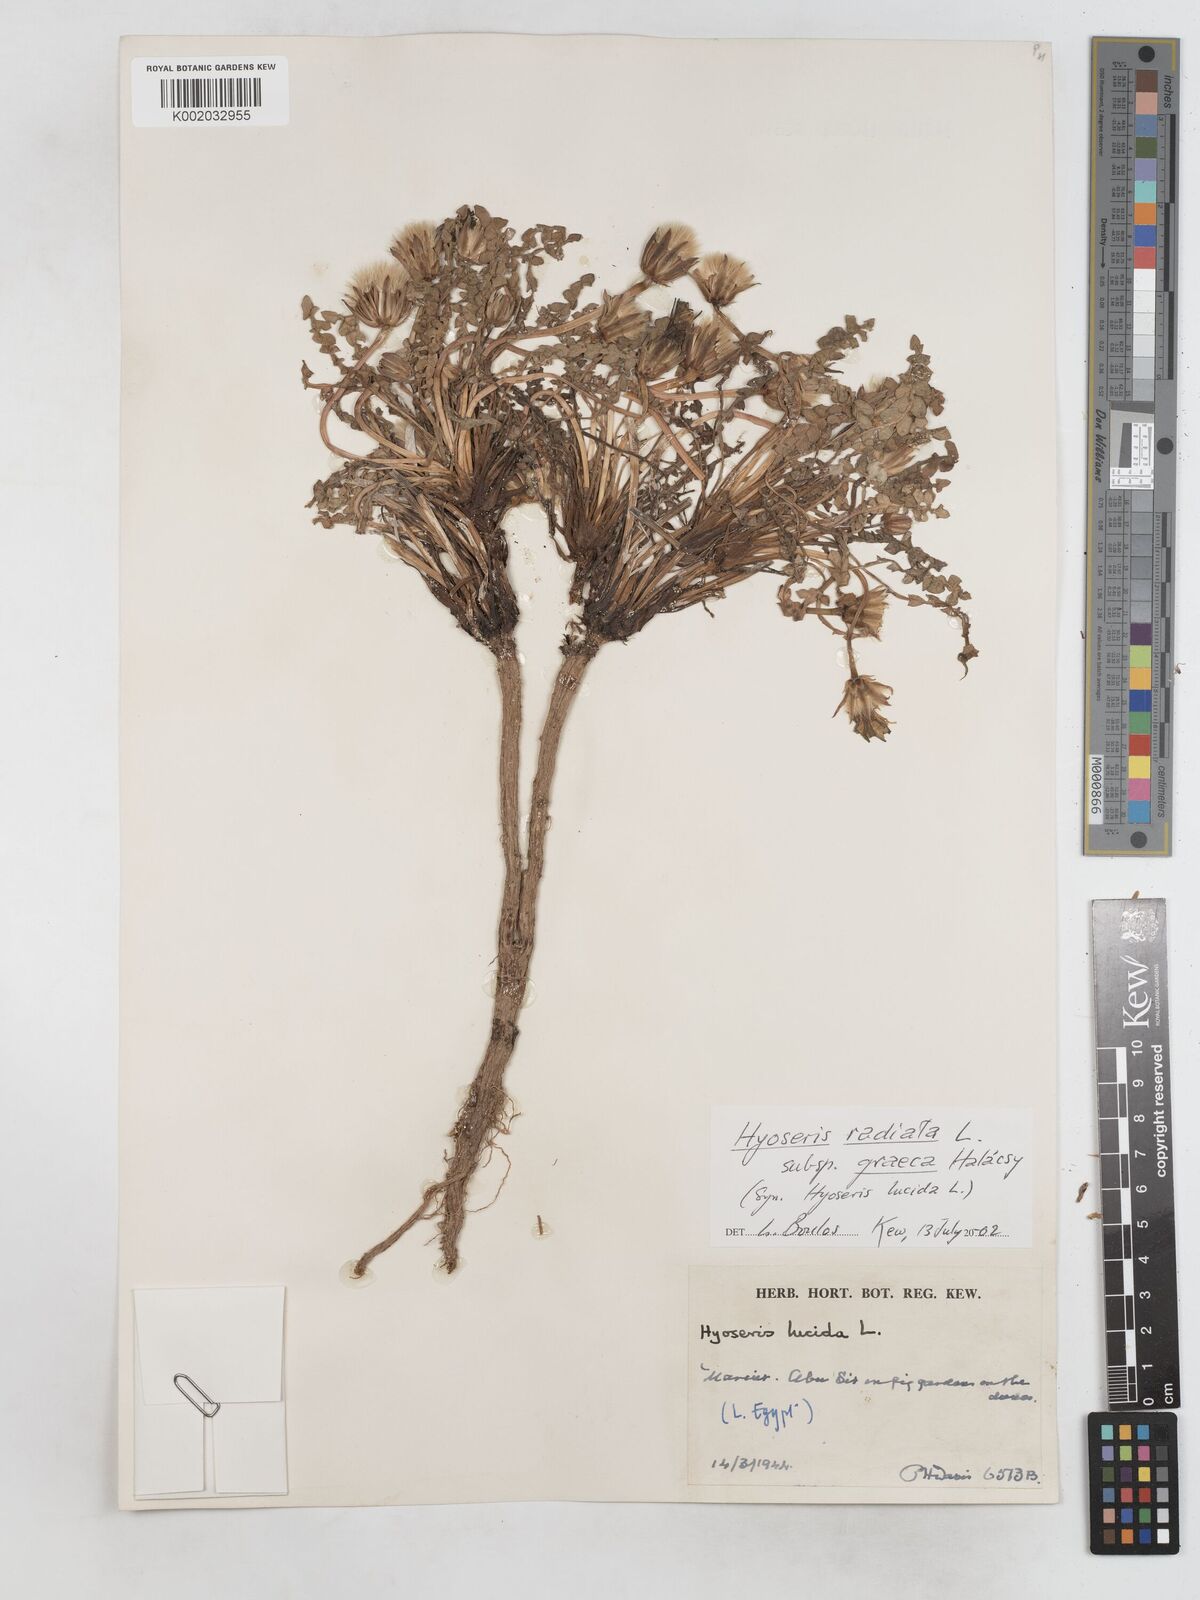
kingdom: Plantae
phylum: Tracheophyta
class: Magnoliopsida
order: Asterales
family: Asteraceae
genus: Hyoseris
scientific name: Hyoseris lucida
